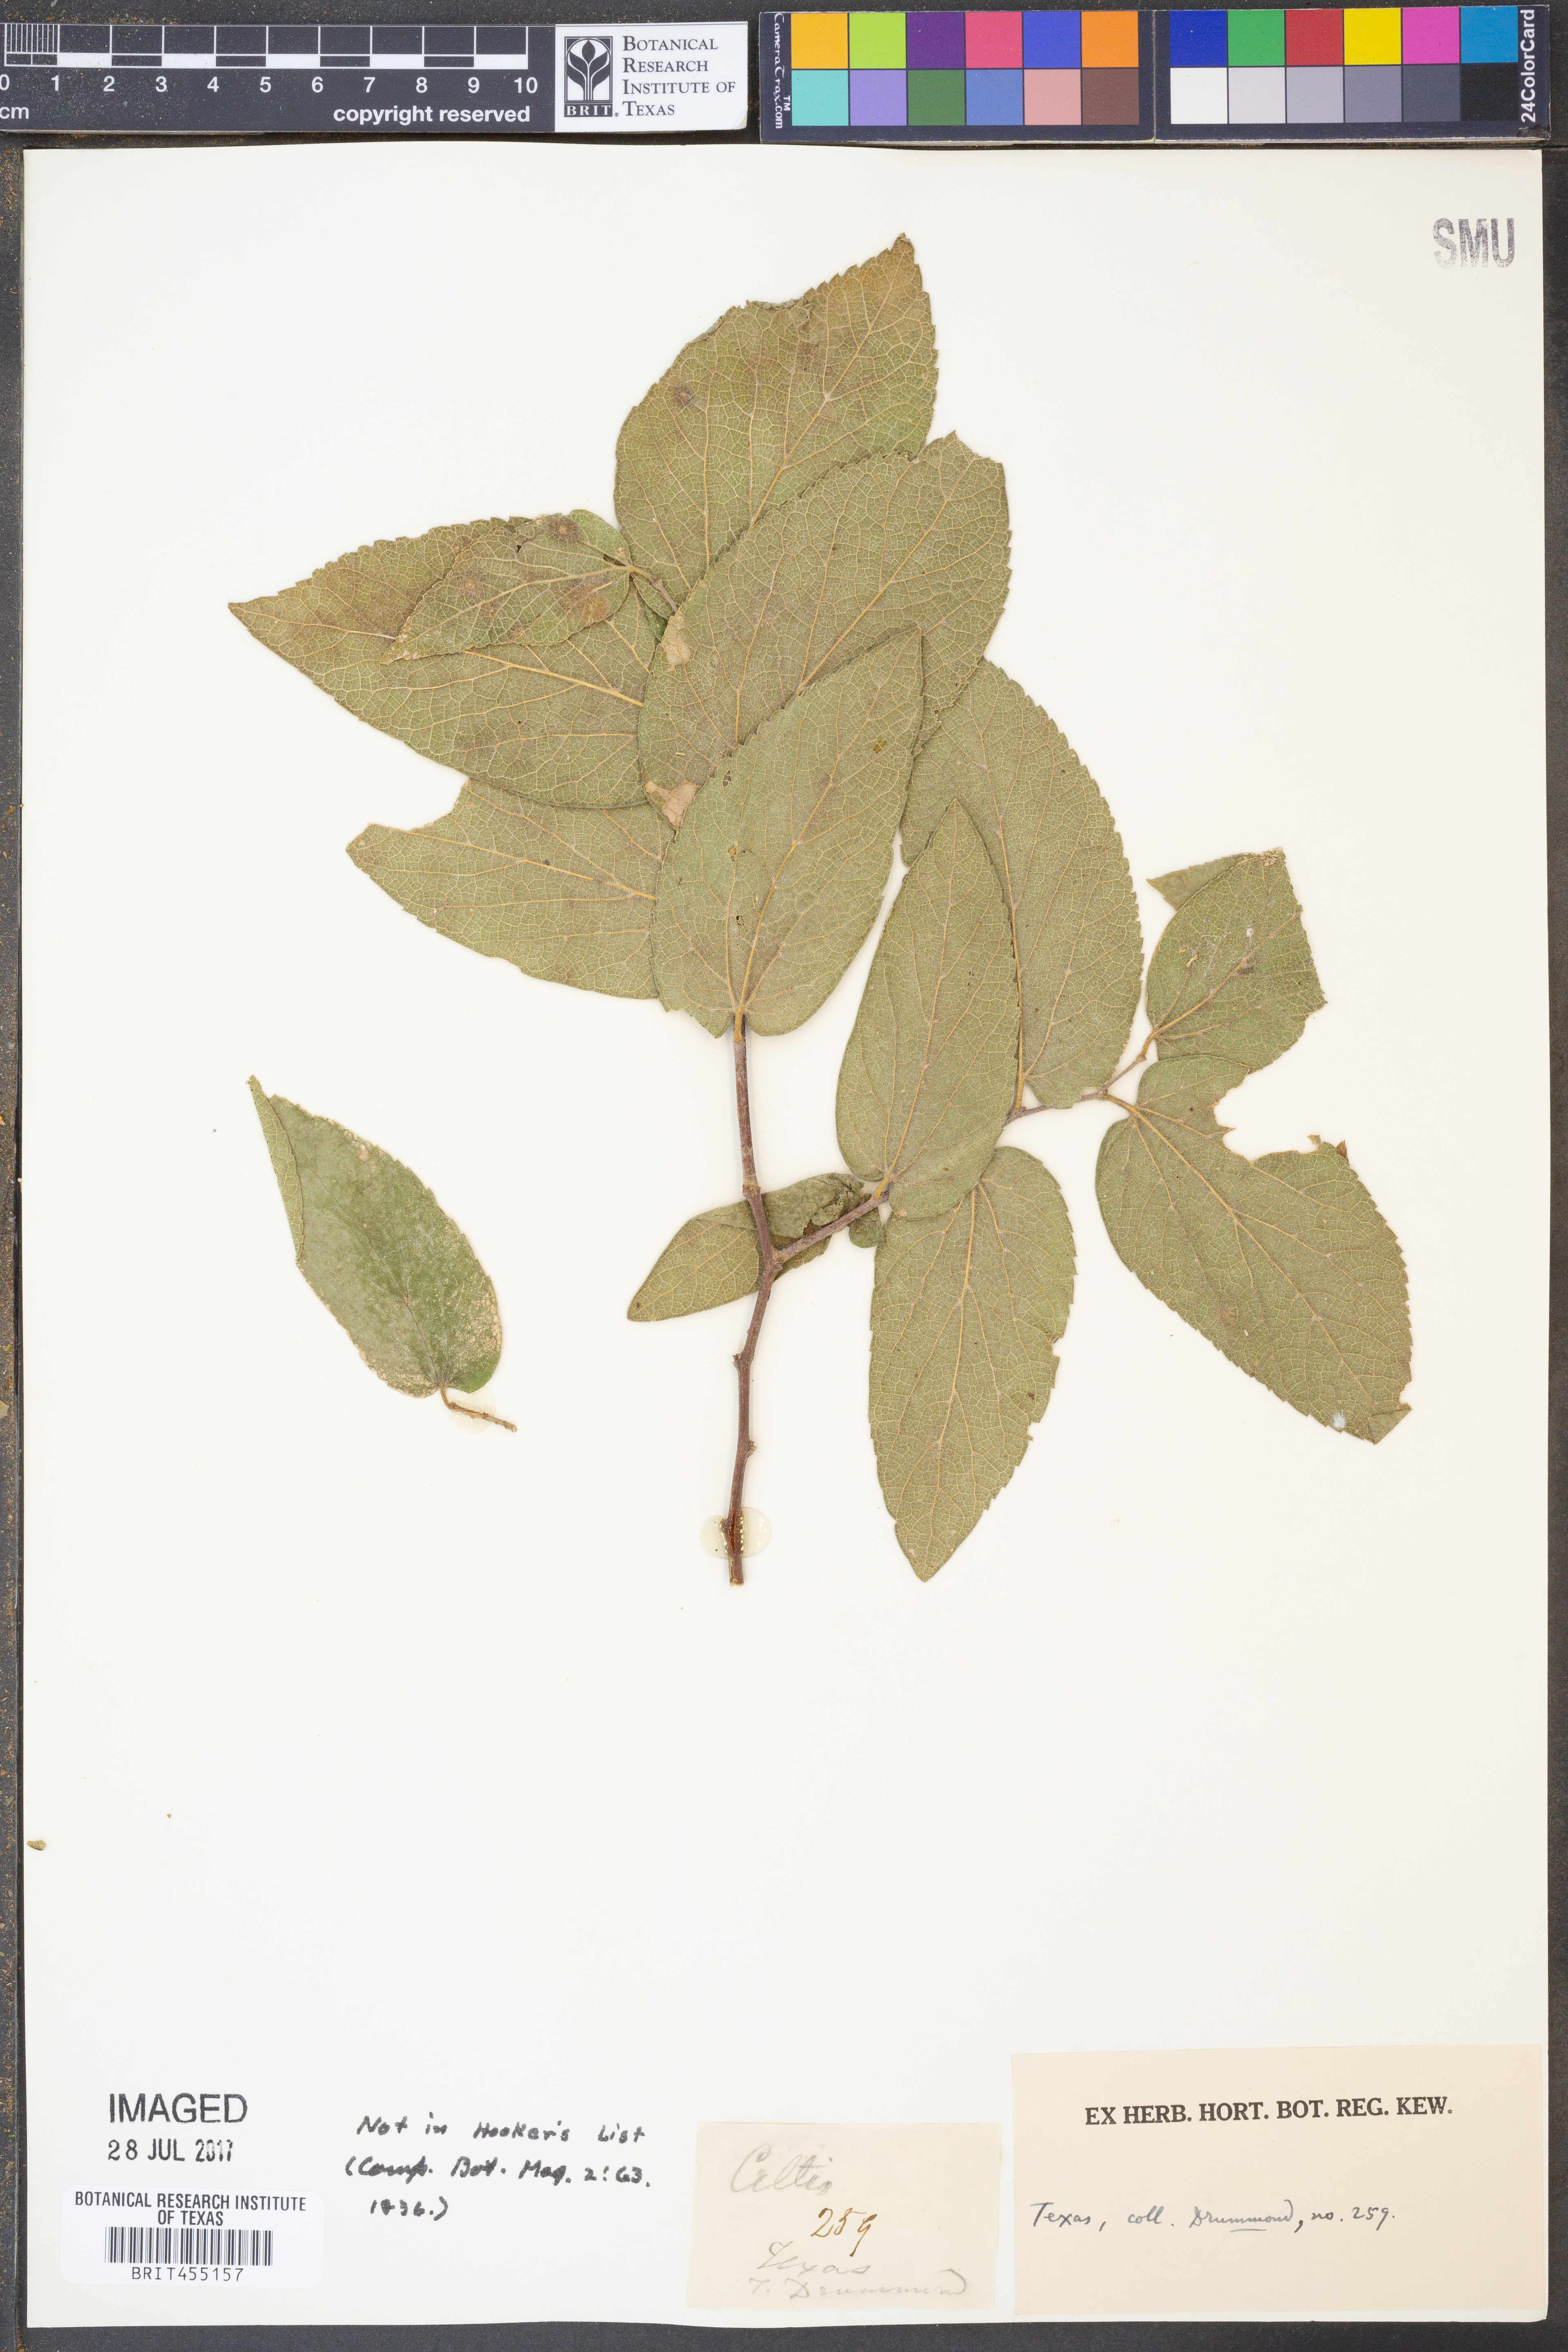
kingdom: Plantae
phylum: Tracheophyta
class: Magnoliopsida
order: Rosales
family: Cannabaceae
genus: Celtis
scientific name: Celtis
